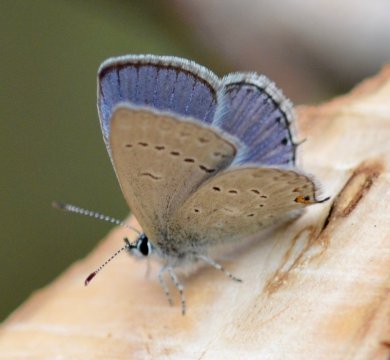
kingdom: Animalia
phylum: Arthropoda
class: Insecta
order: Lepidoptera
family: Lycaenidae
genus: Elkalyce
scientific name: Elkalyce amyntula
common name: Western Tailed-Blue
